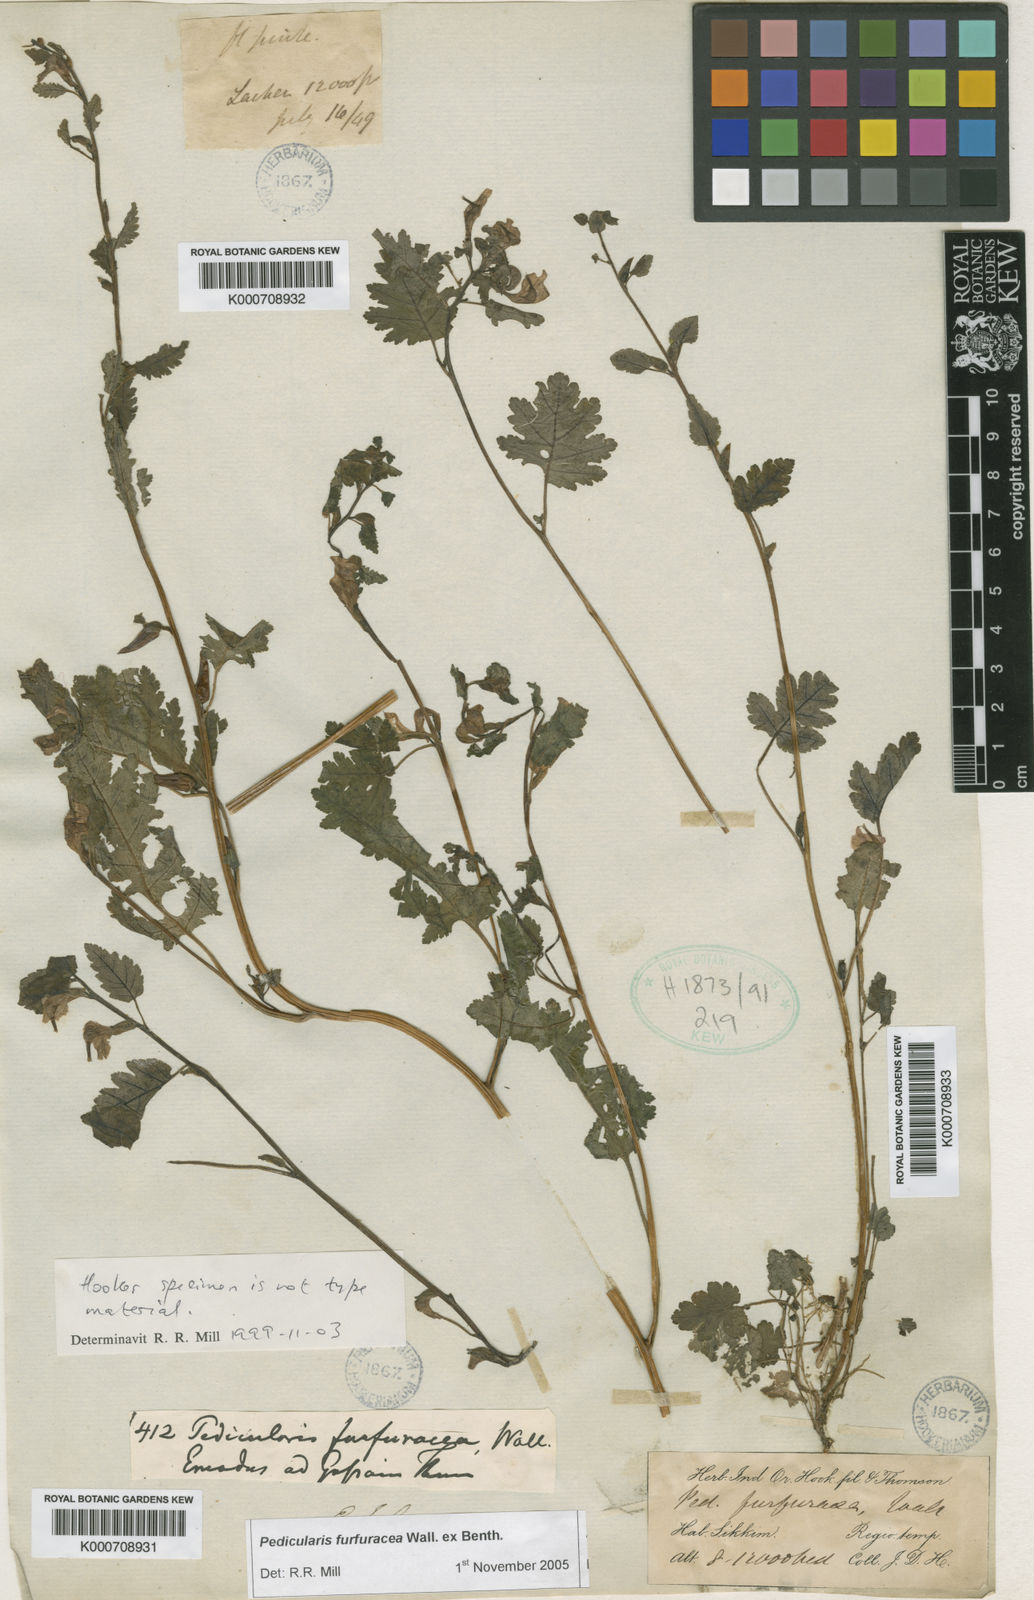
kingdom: Plantae
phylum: Tracheophyta
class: Magnoliopsida
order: Lamiales
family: Orobanchaceae
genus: Pedicularis
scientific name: Pedicularis
